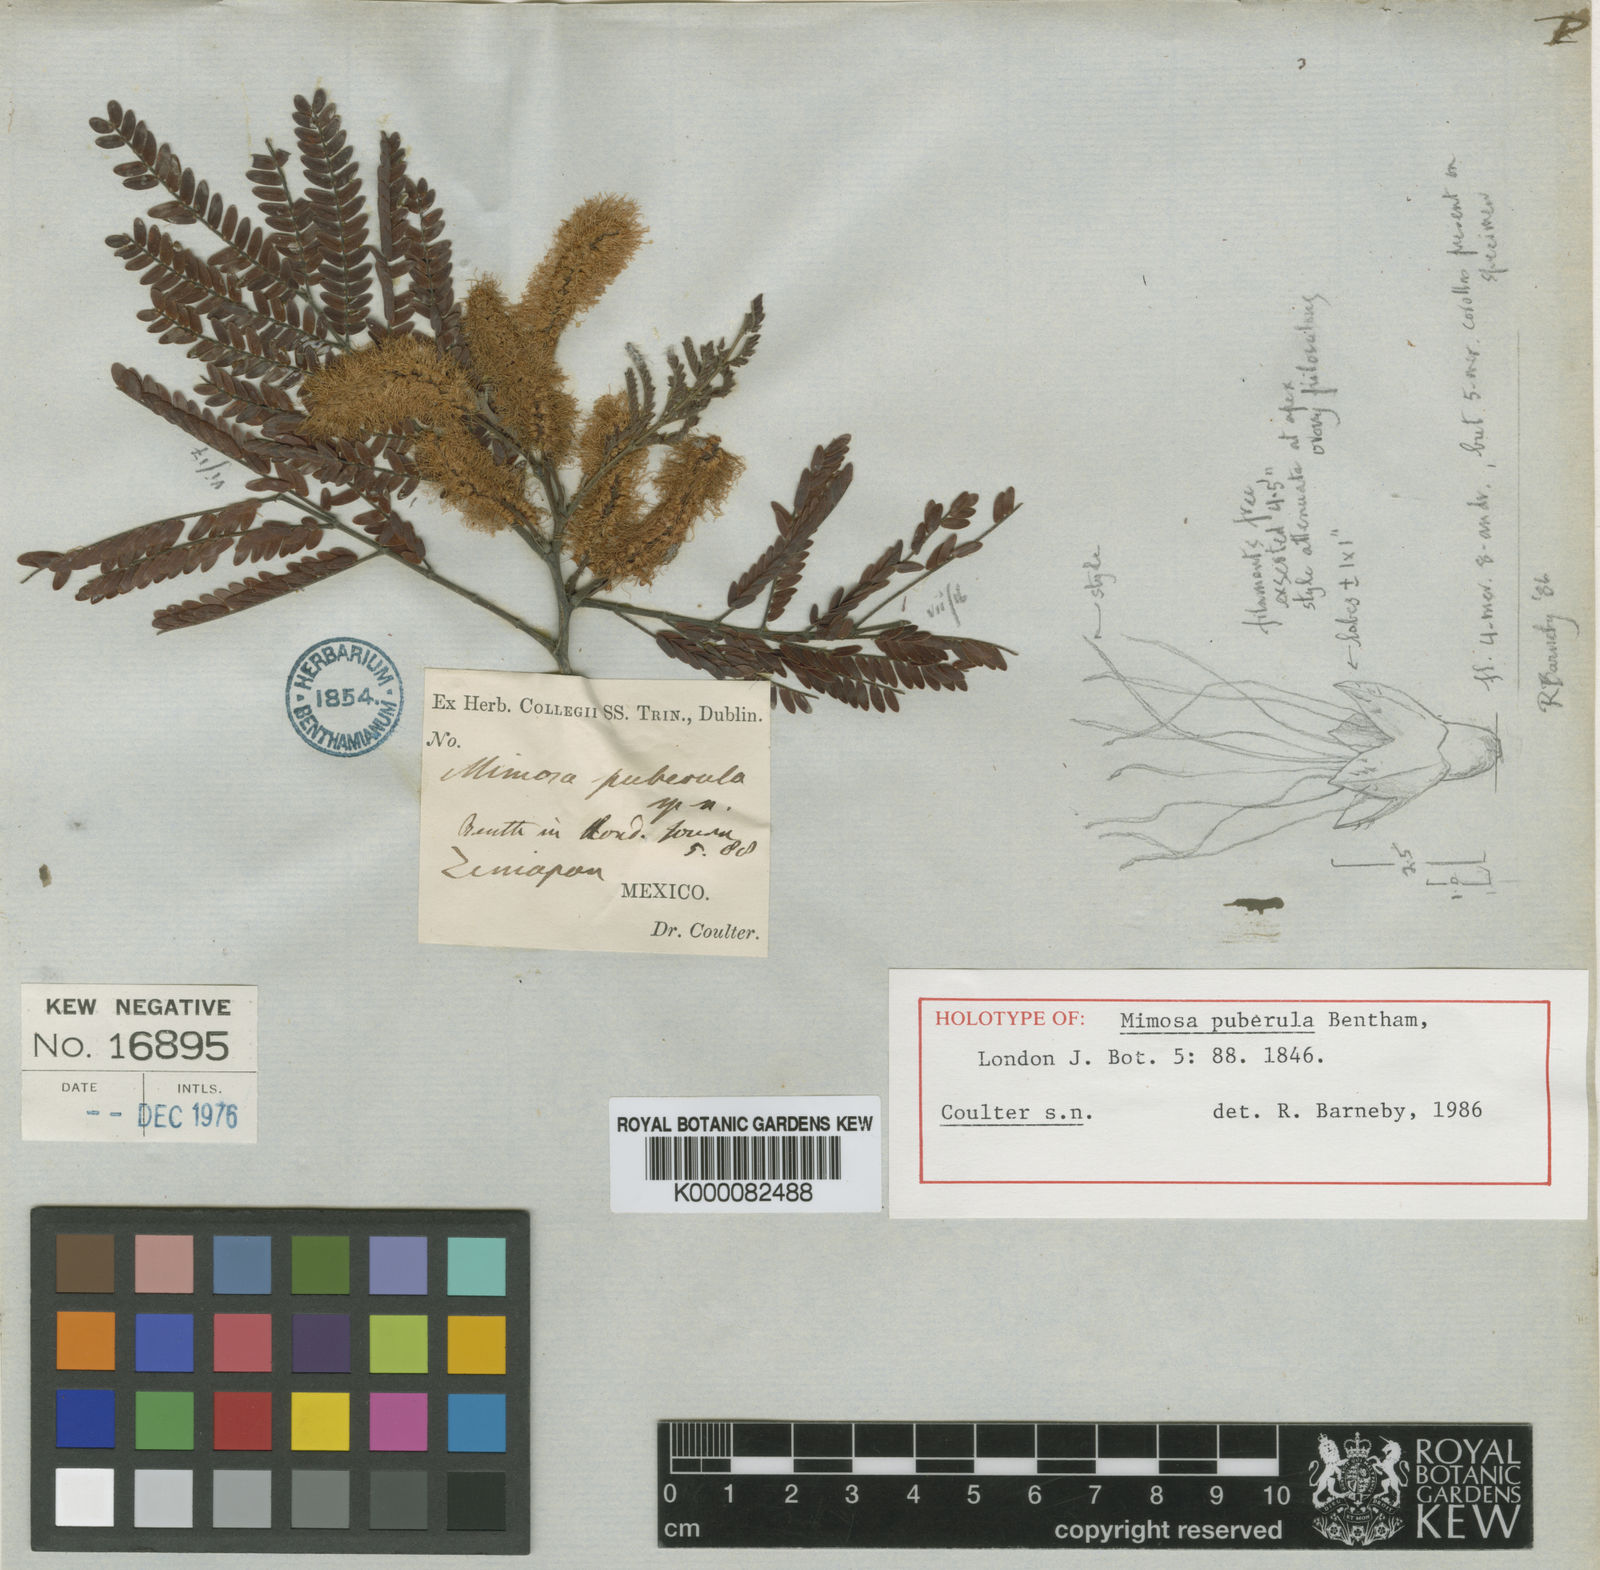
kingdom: Plantae
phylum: Tracheophyta
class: Magnoliopsida
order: Fabales
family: Fabaceae
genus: Mimosa
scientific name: Mimosa puberula
